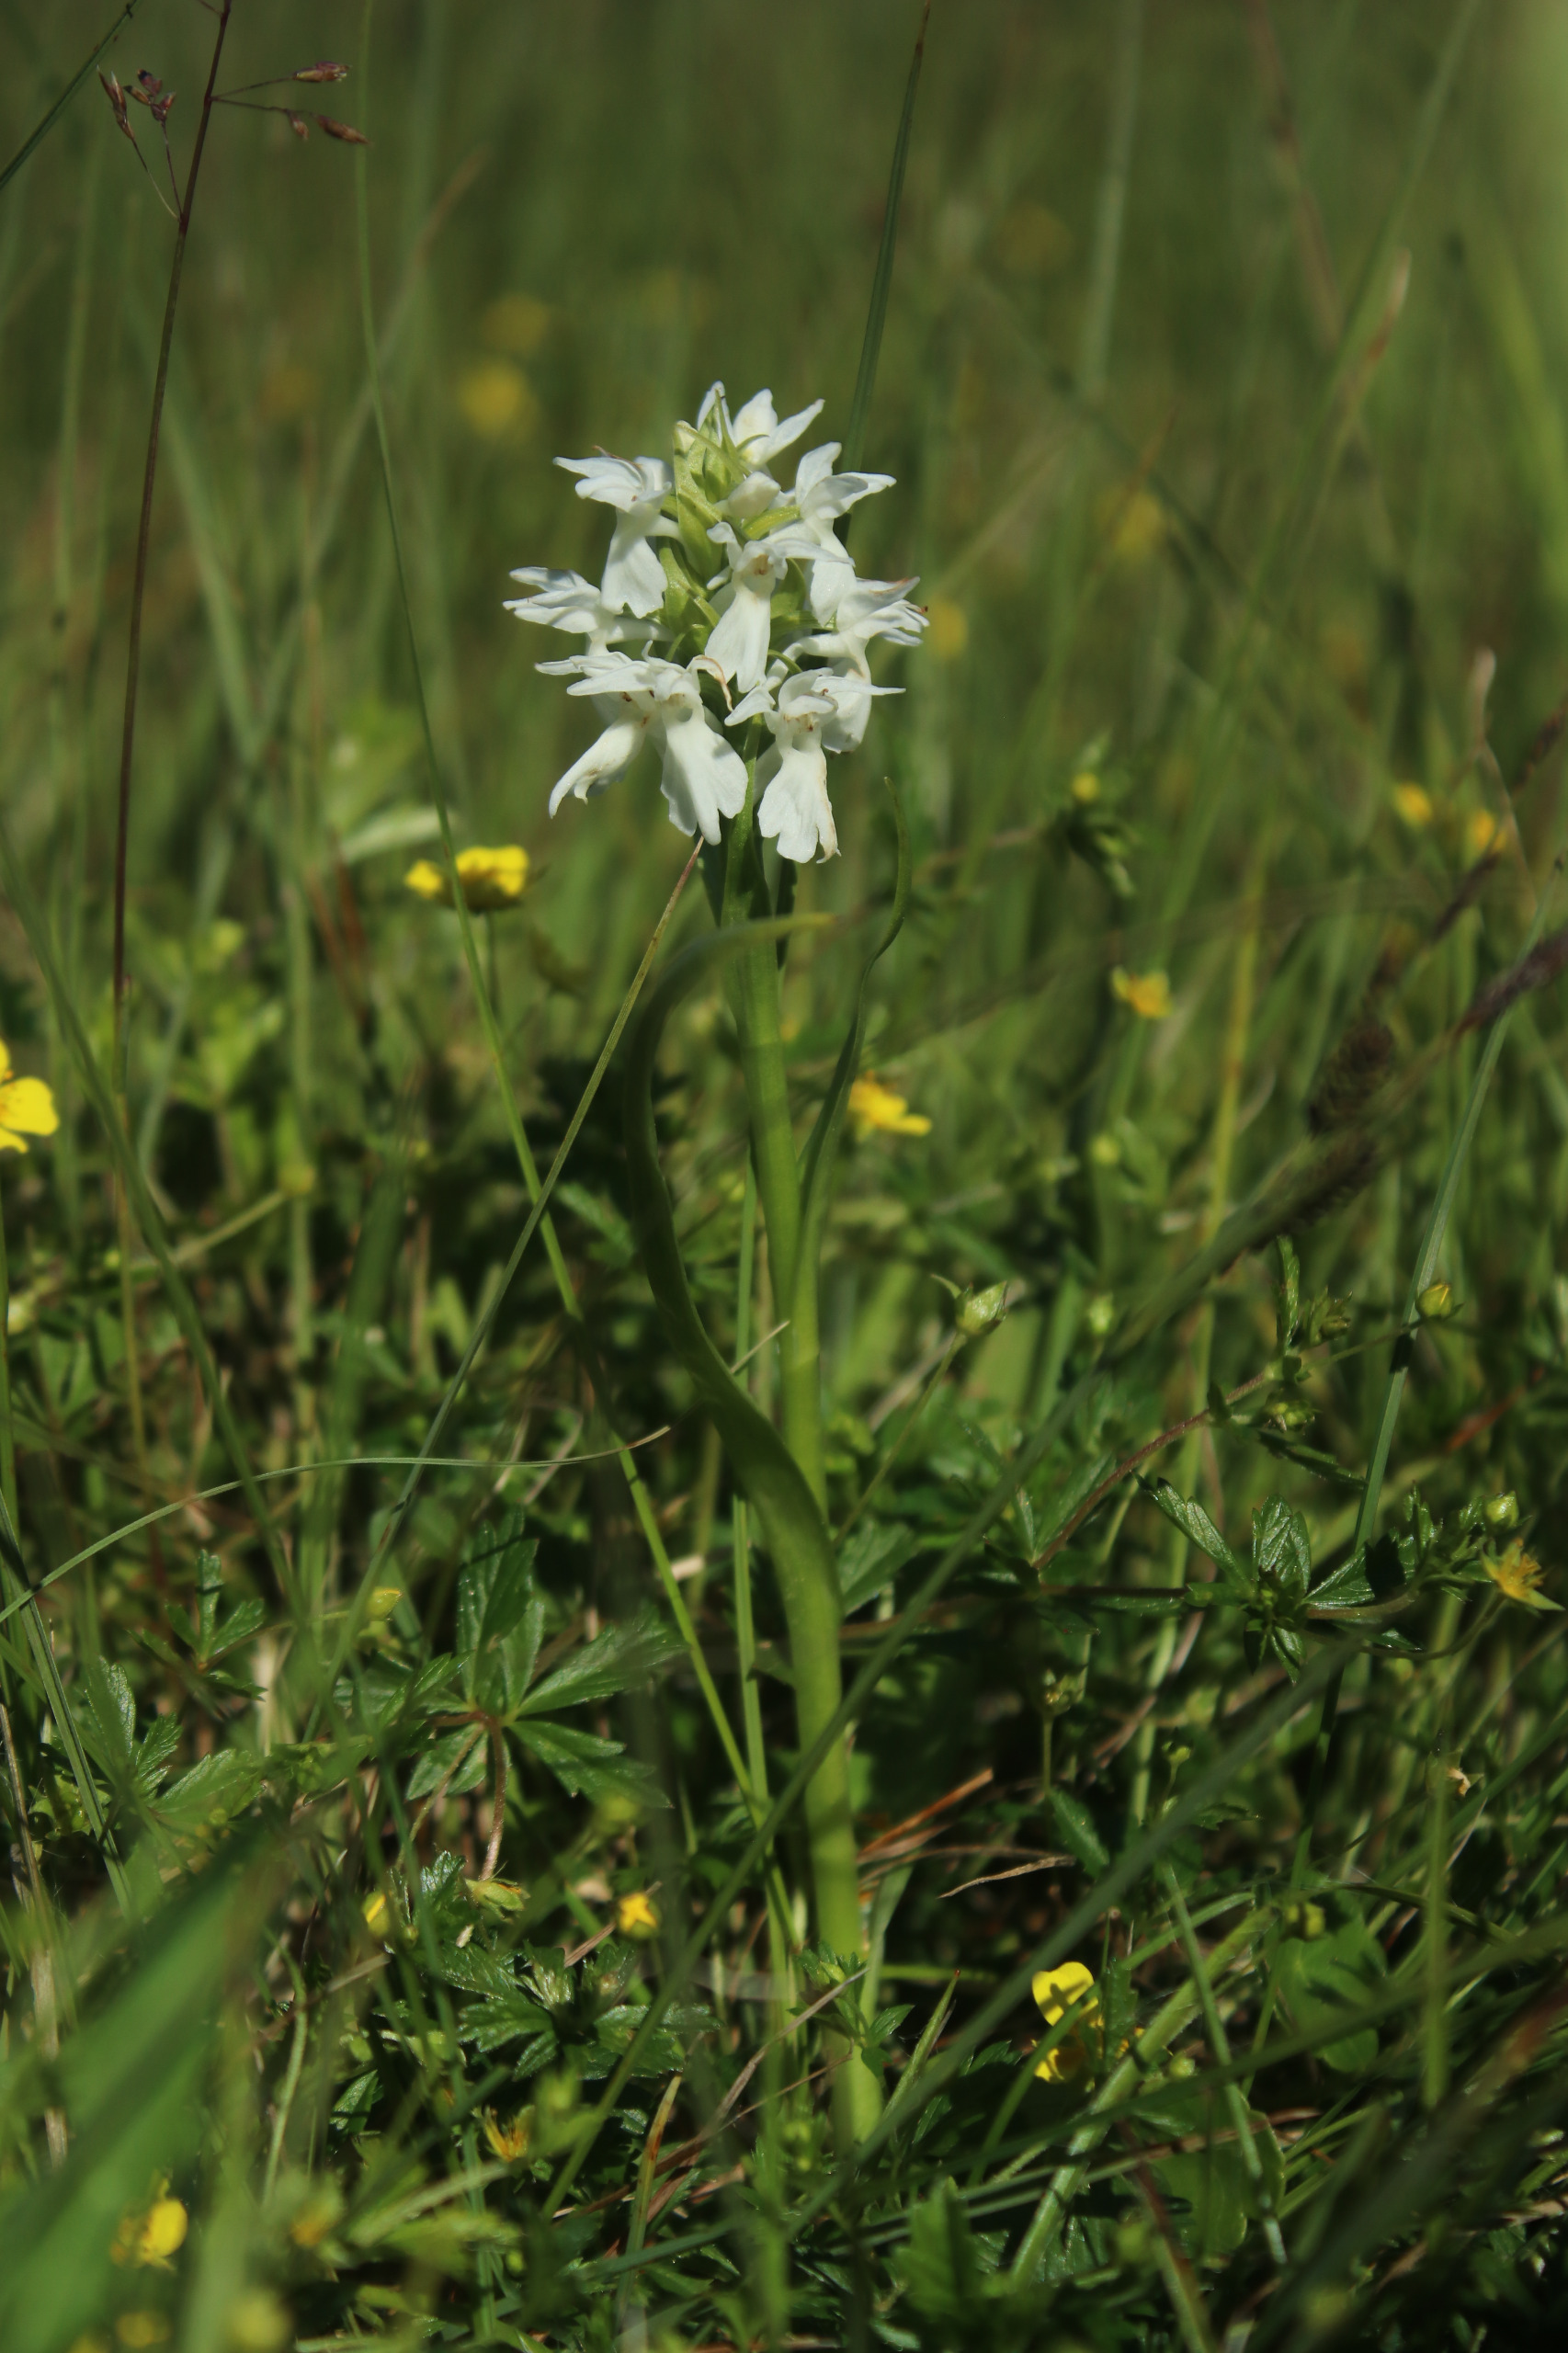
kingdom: Plantae
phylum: Tracheophyta
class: Liliopsida
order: Asparagales
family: Orchidaceae
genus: Dactylorhiza
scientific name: Dactylorhiza majalis
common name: Thy-gøgeurt
